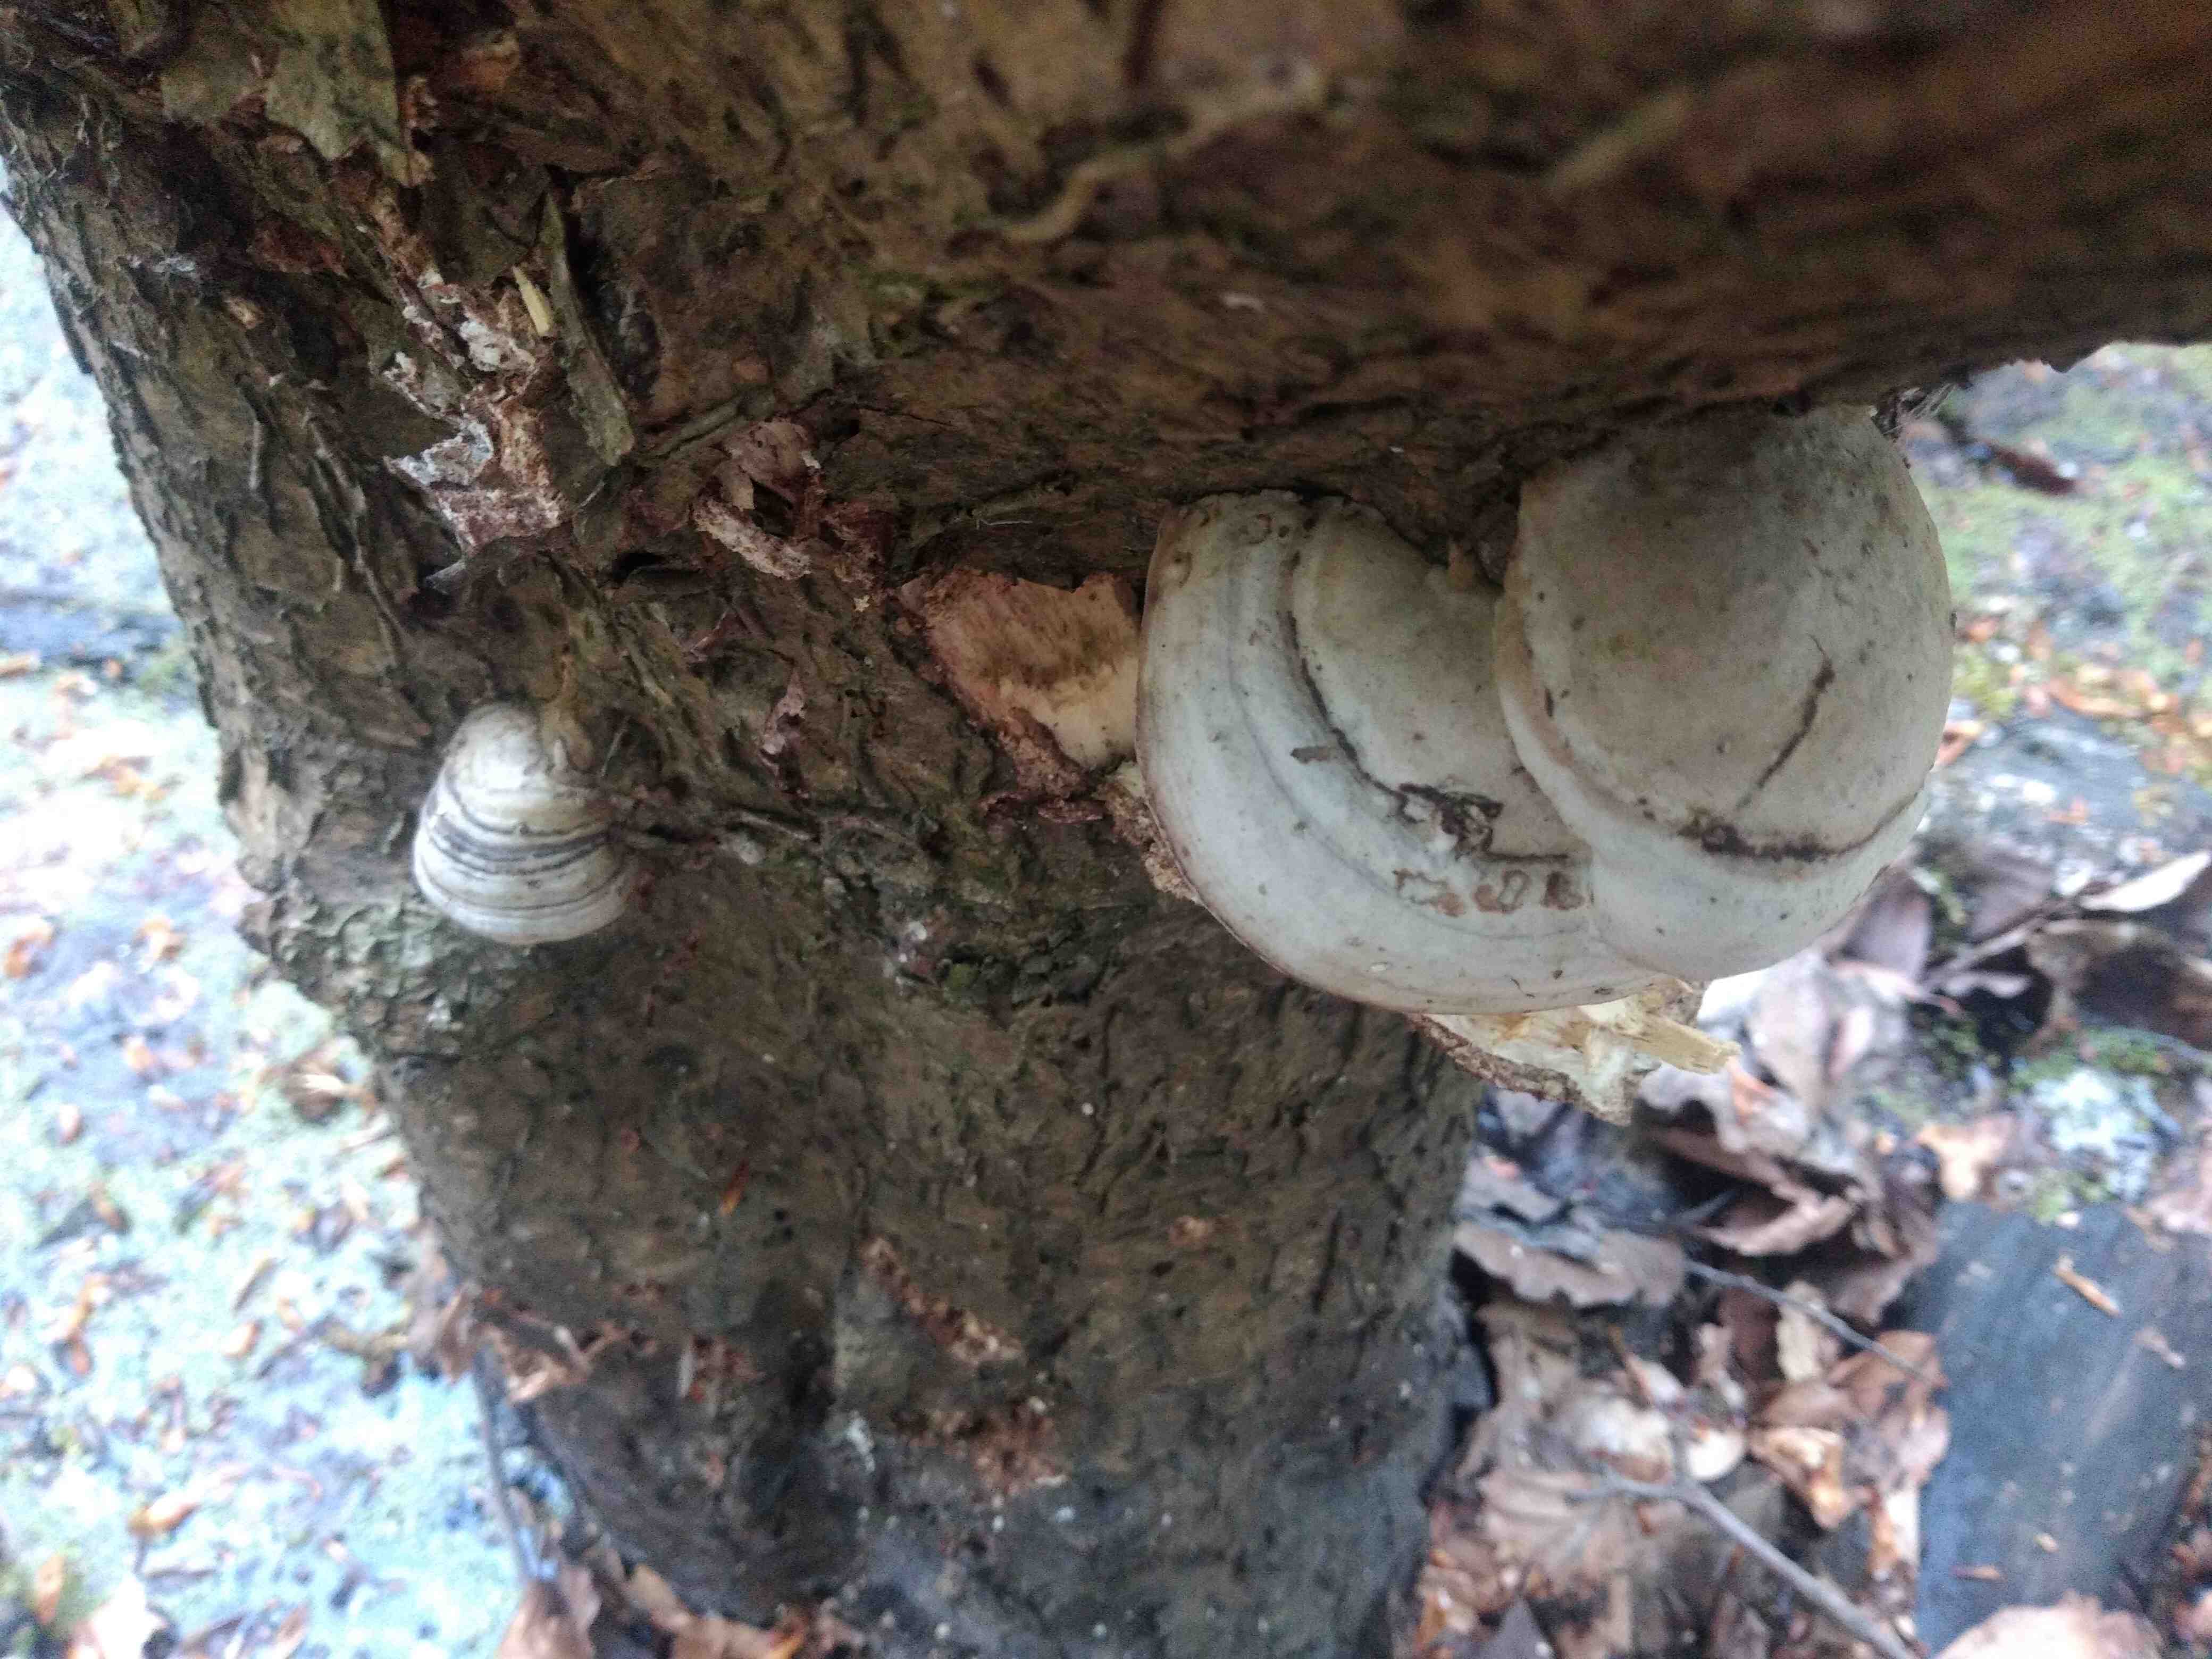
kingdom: Fungi
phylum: Basidiomycota
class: Agaricomycetes
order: Polyporales
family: Polyporaceae
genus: Ganoderma
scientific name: Ganoderma applanatum
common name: flad lakporesvamp
